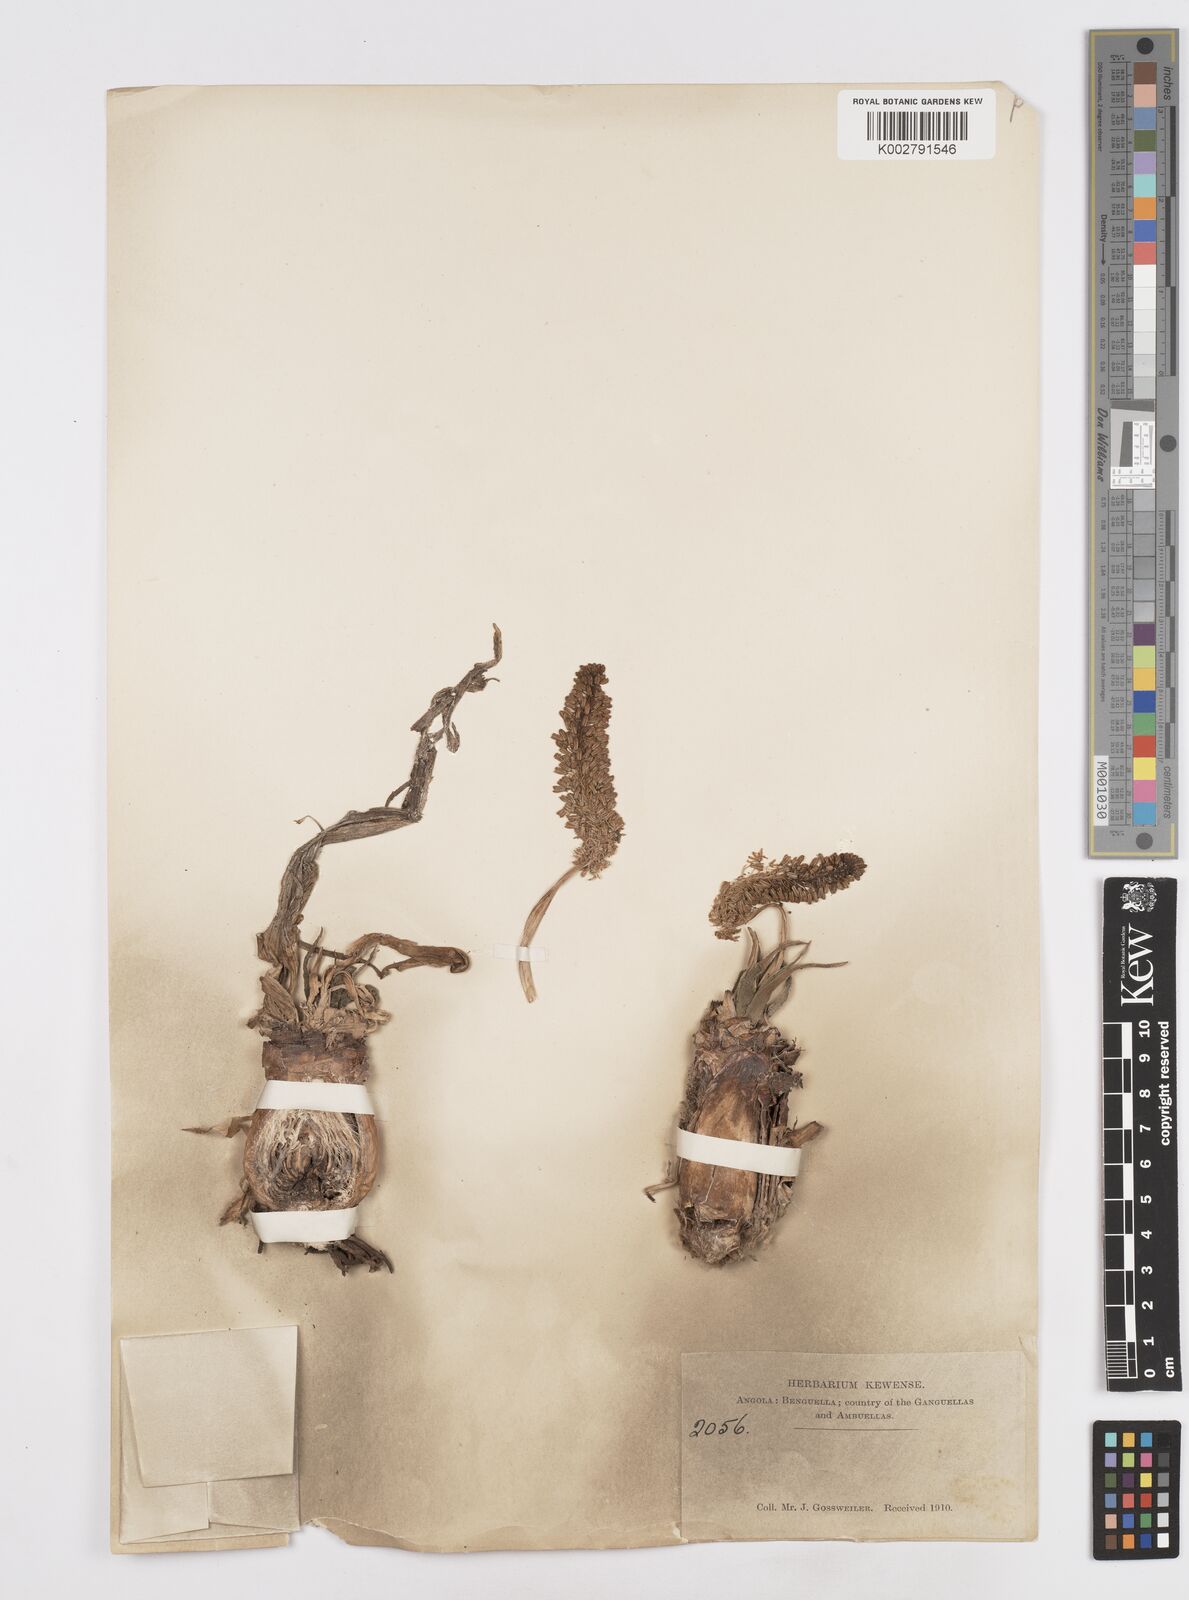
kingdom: Plantae
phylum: Tracheophyta
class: Liliopsida
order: Asparagales
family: Asparagaceae
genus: Scilla
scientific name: Scilla
